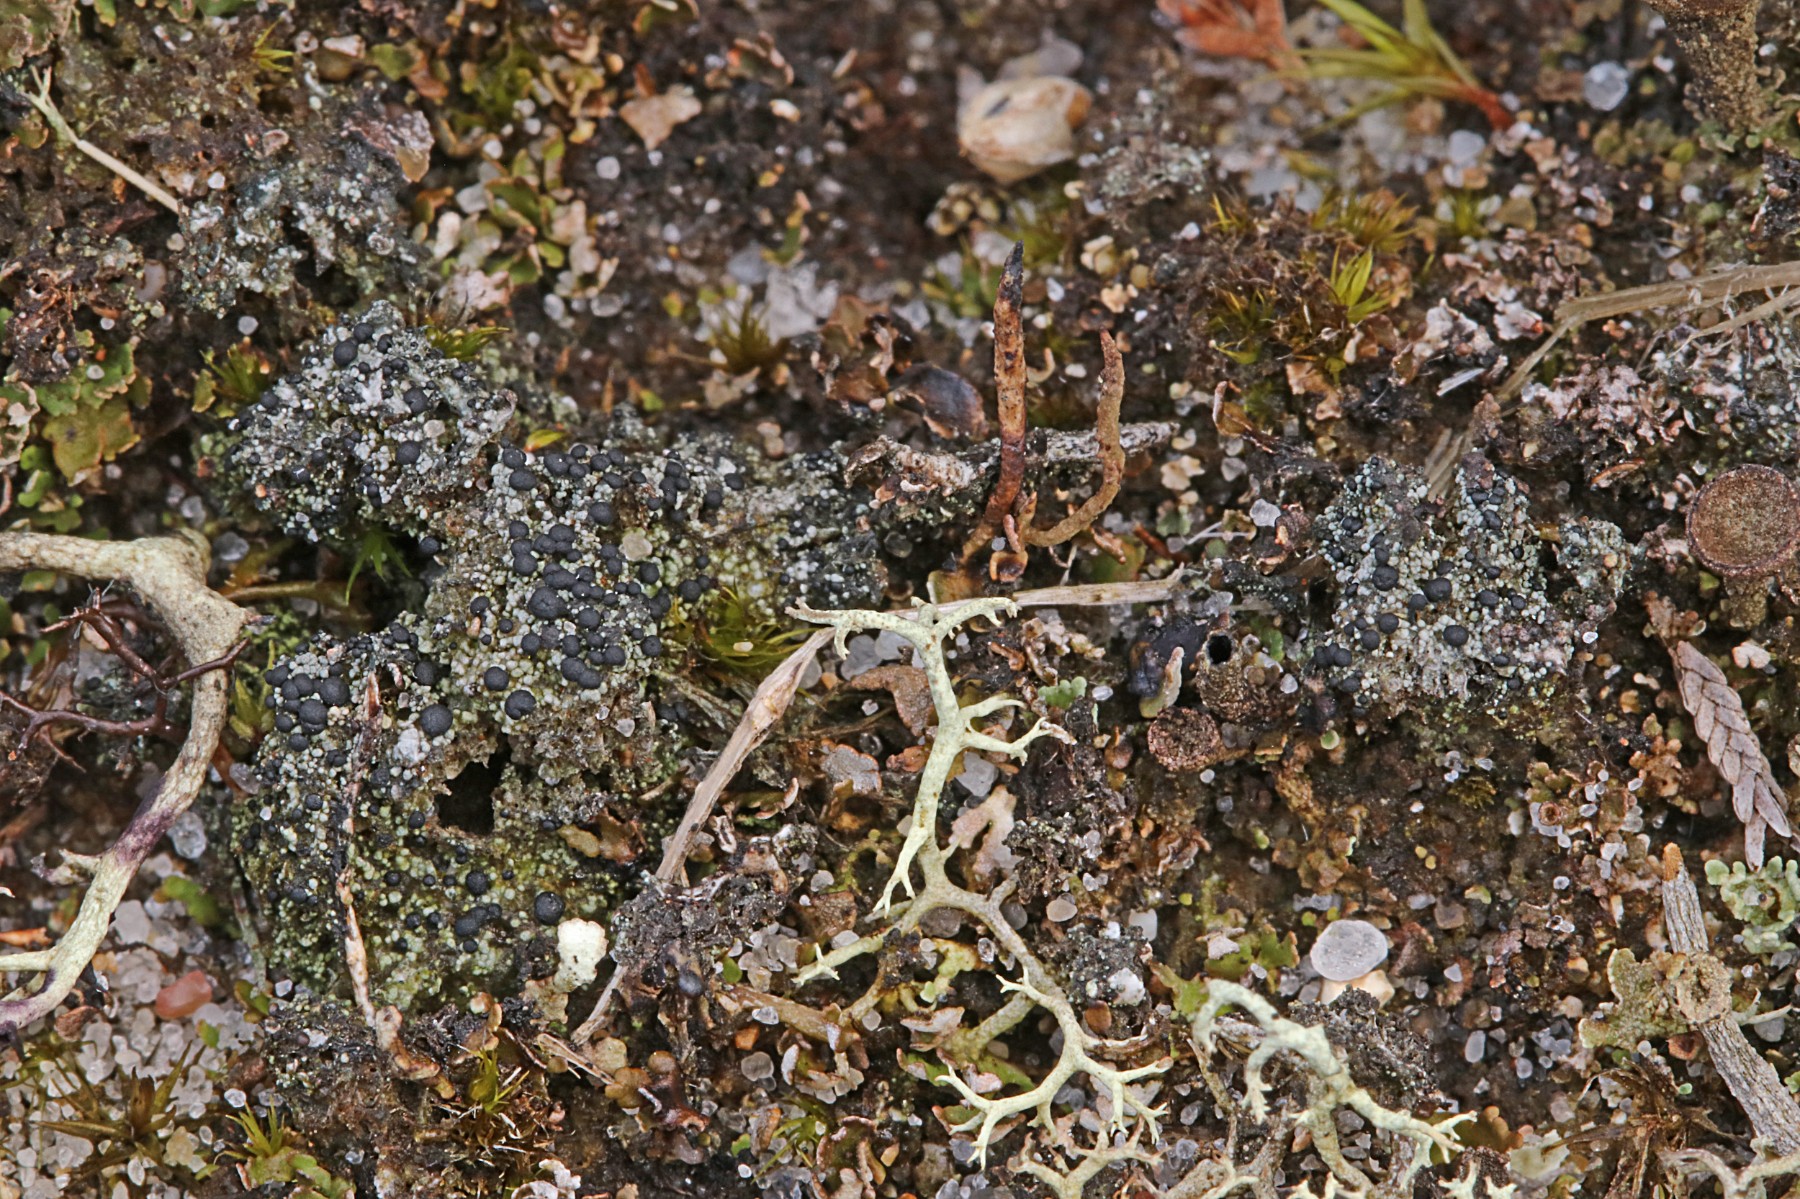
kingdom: Fungi
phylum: Ascomycota
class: Lecanoromycetes
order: Lecanorales
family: Byssolomataceae
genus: Micarea
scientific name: Micarea lignaria
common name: tørve-knaplav
